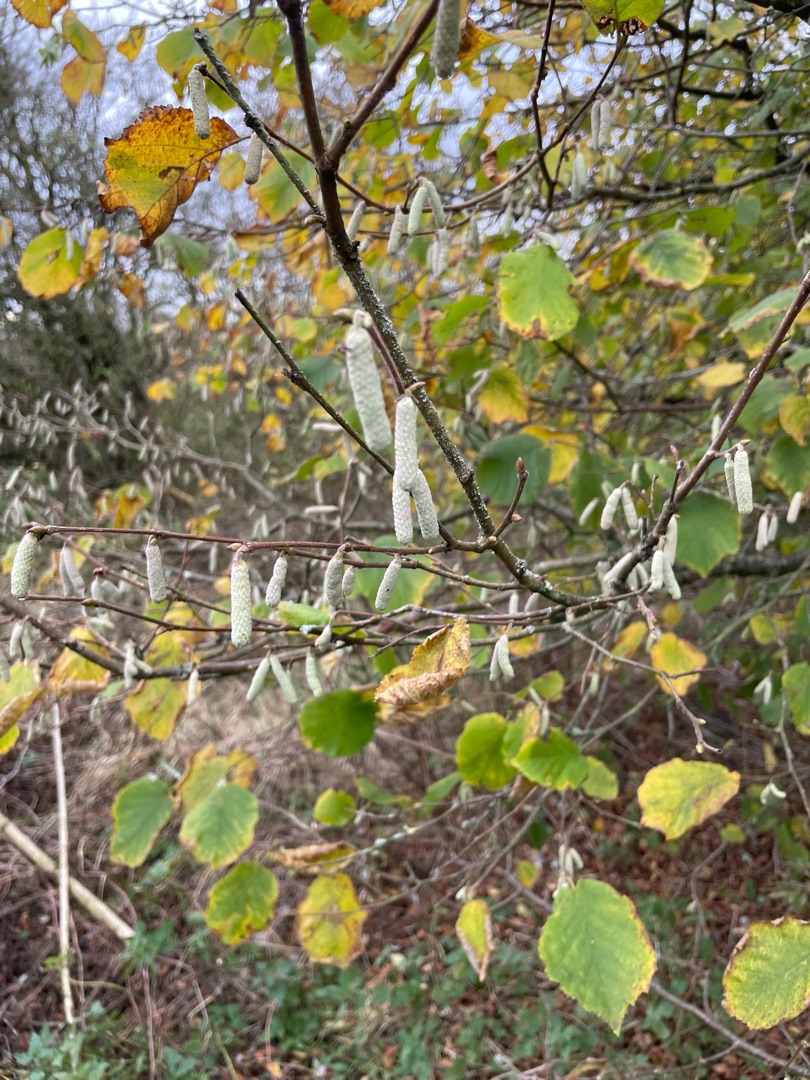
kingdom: Plantae
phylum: Tracheophyta
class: Magnoliopsida
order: Fagales
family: Betulaceae
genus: Corylus
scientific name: Corylus avellana
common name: Hassel
